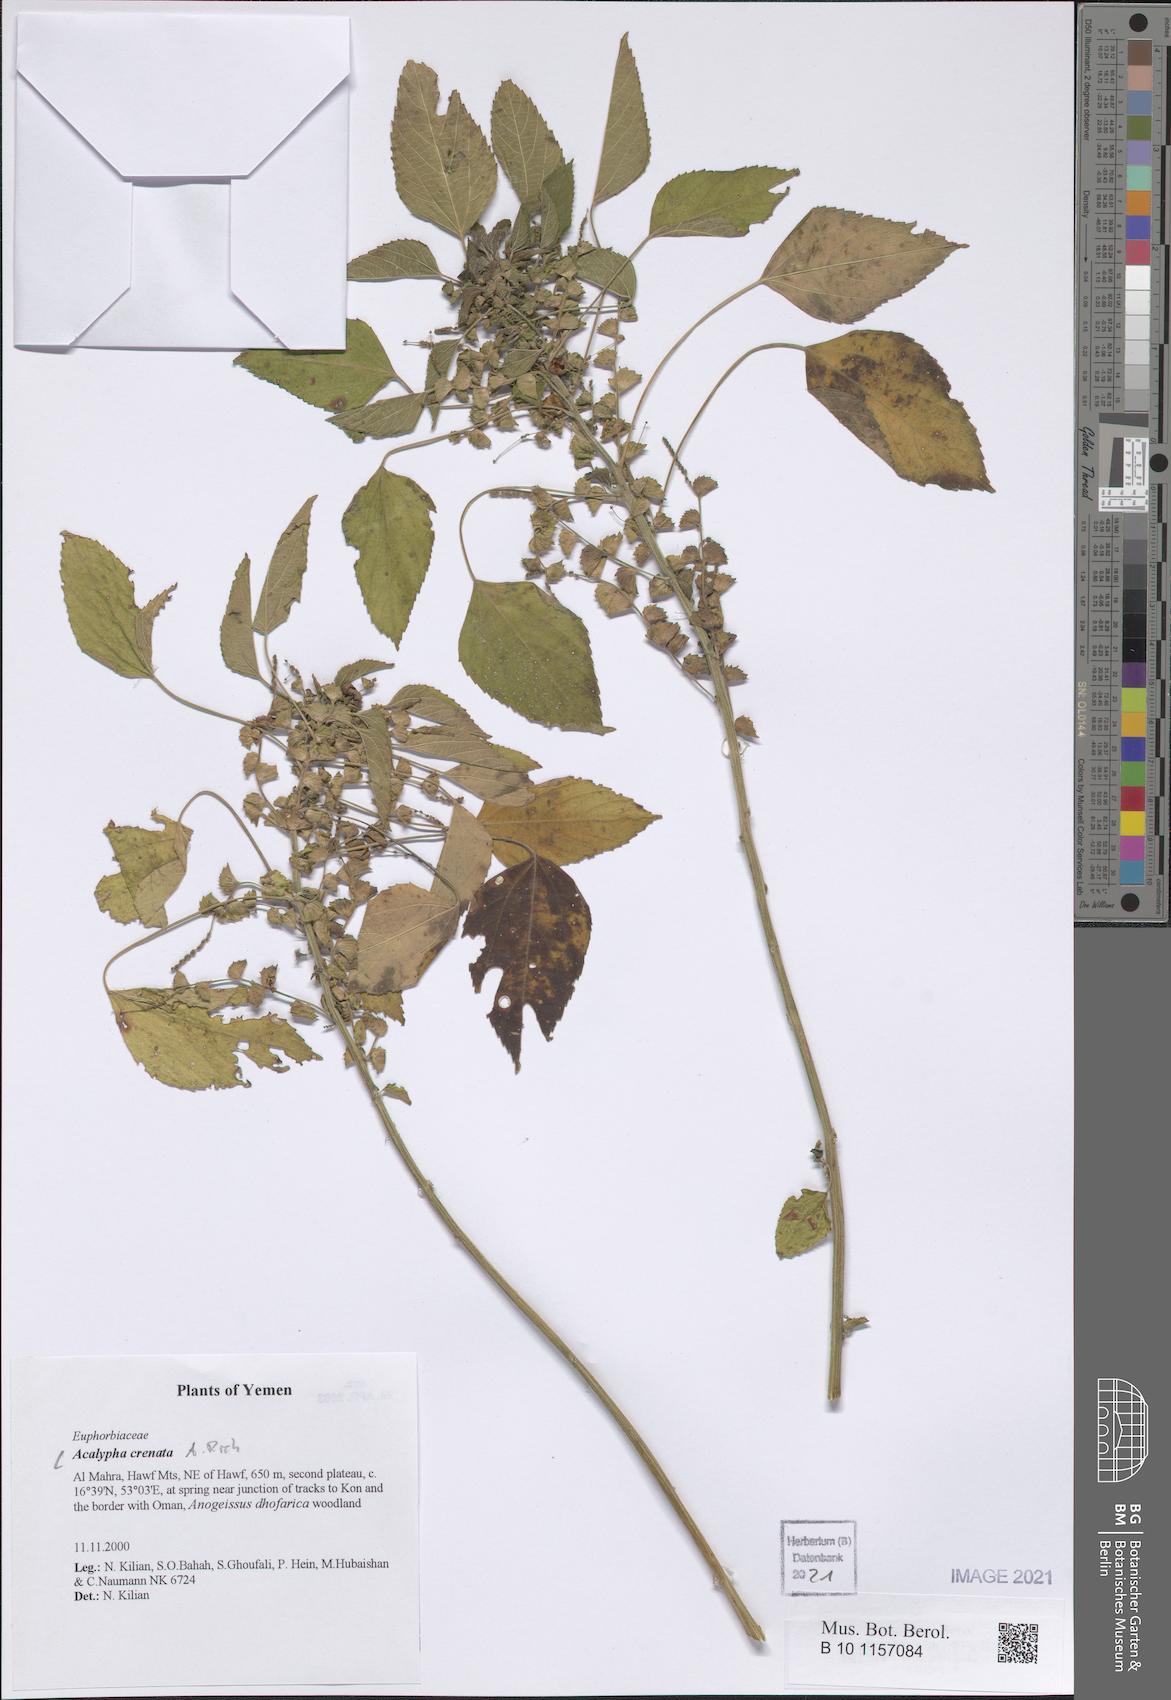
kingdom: Plantae
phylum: Tracheophyta
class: Magnoliopsida
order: Malpighiales
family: Euphorbiaceae
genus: Acalypha
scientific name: Acalypha crenata
